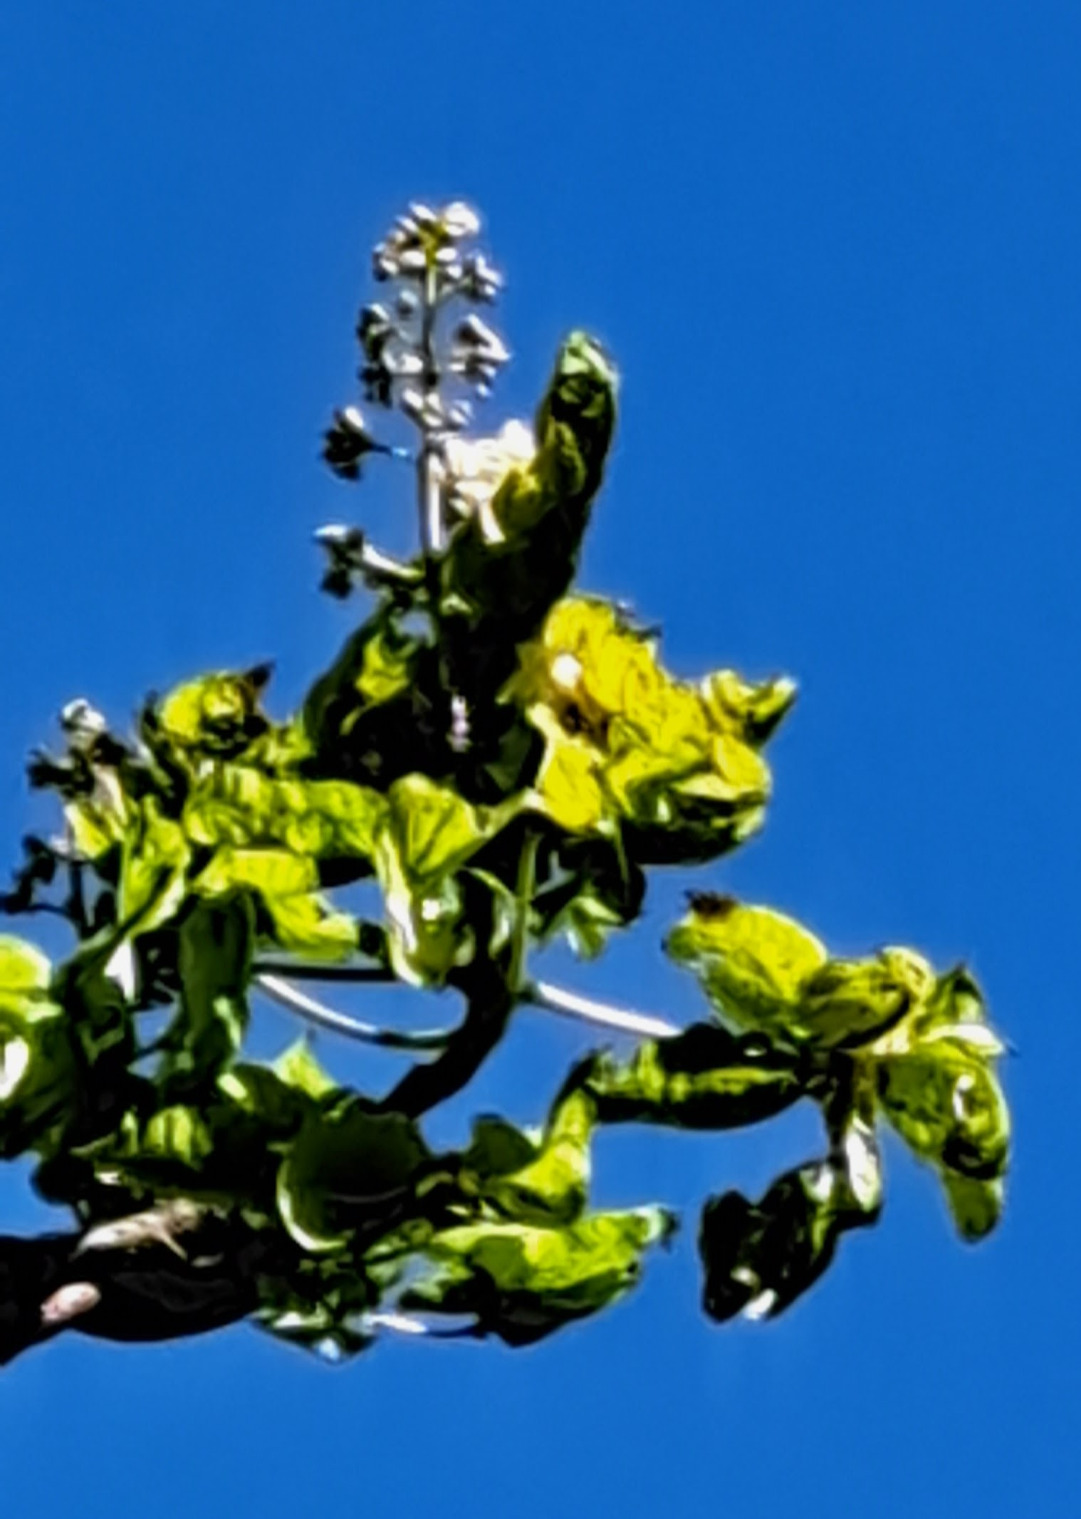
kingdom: Plantae
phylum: Tracheophyta
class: Magnoliopsida
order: Sapindales
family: Sapindaceae
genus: Aesculus
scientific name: Aesculus hippocastanum
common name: Hestekastanie
